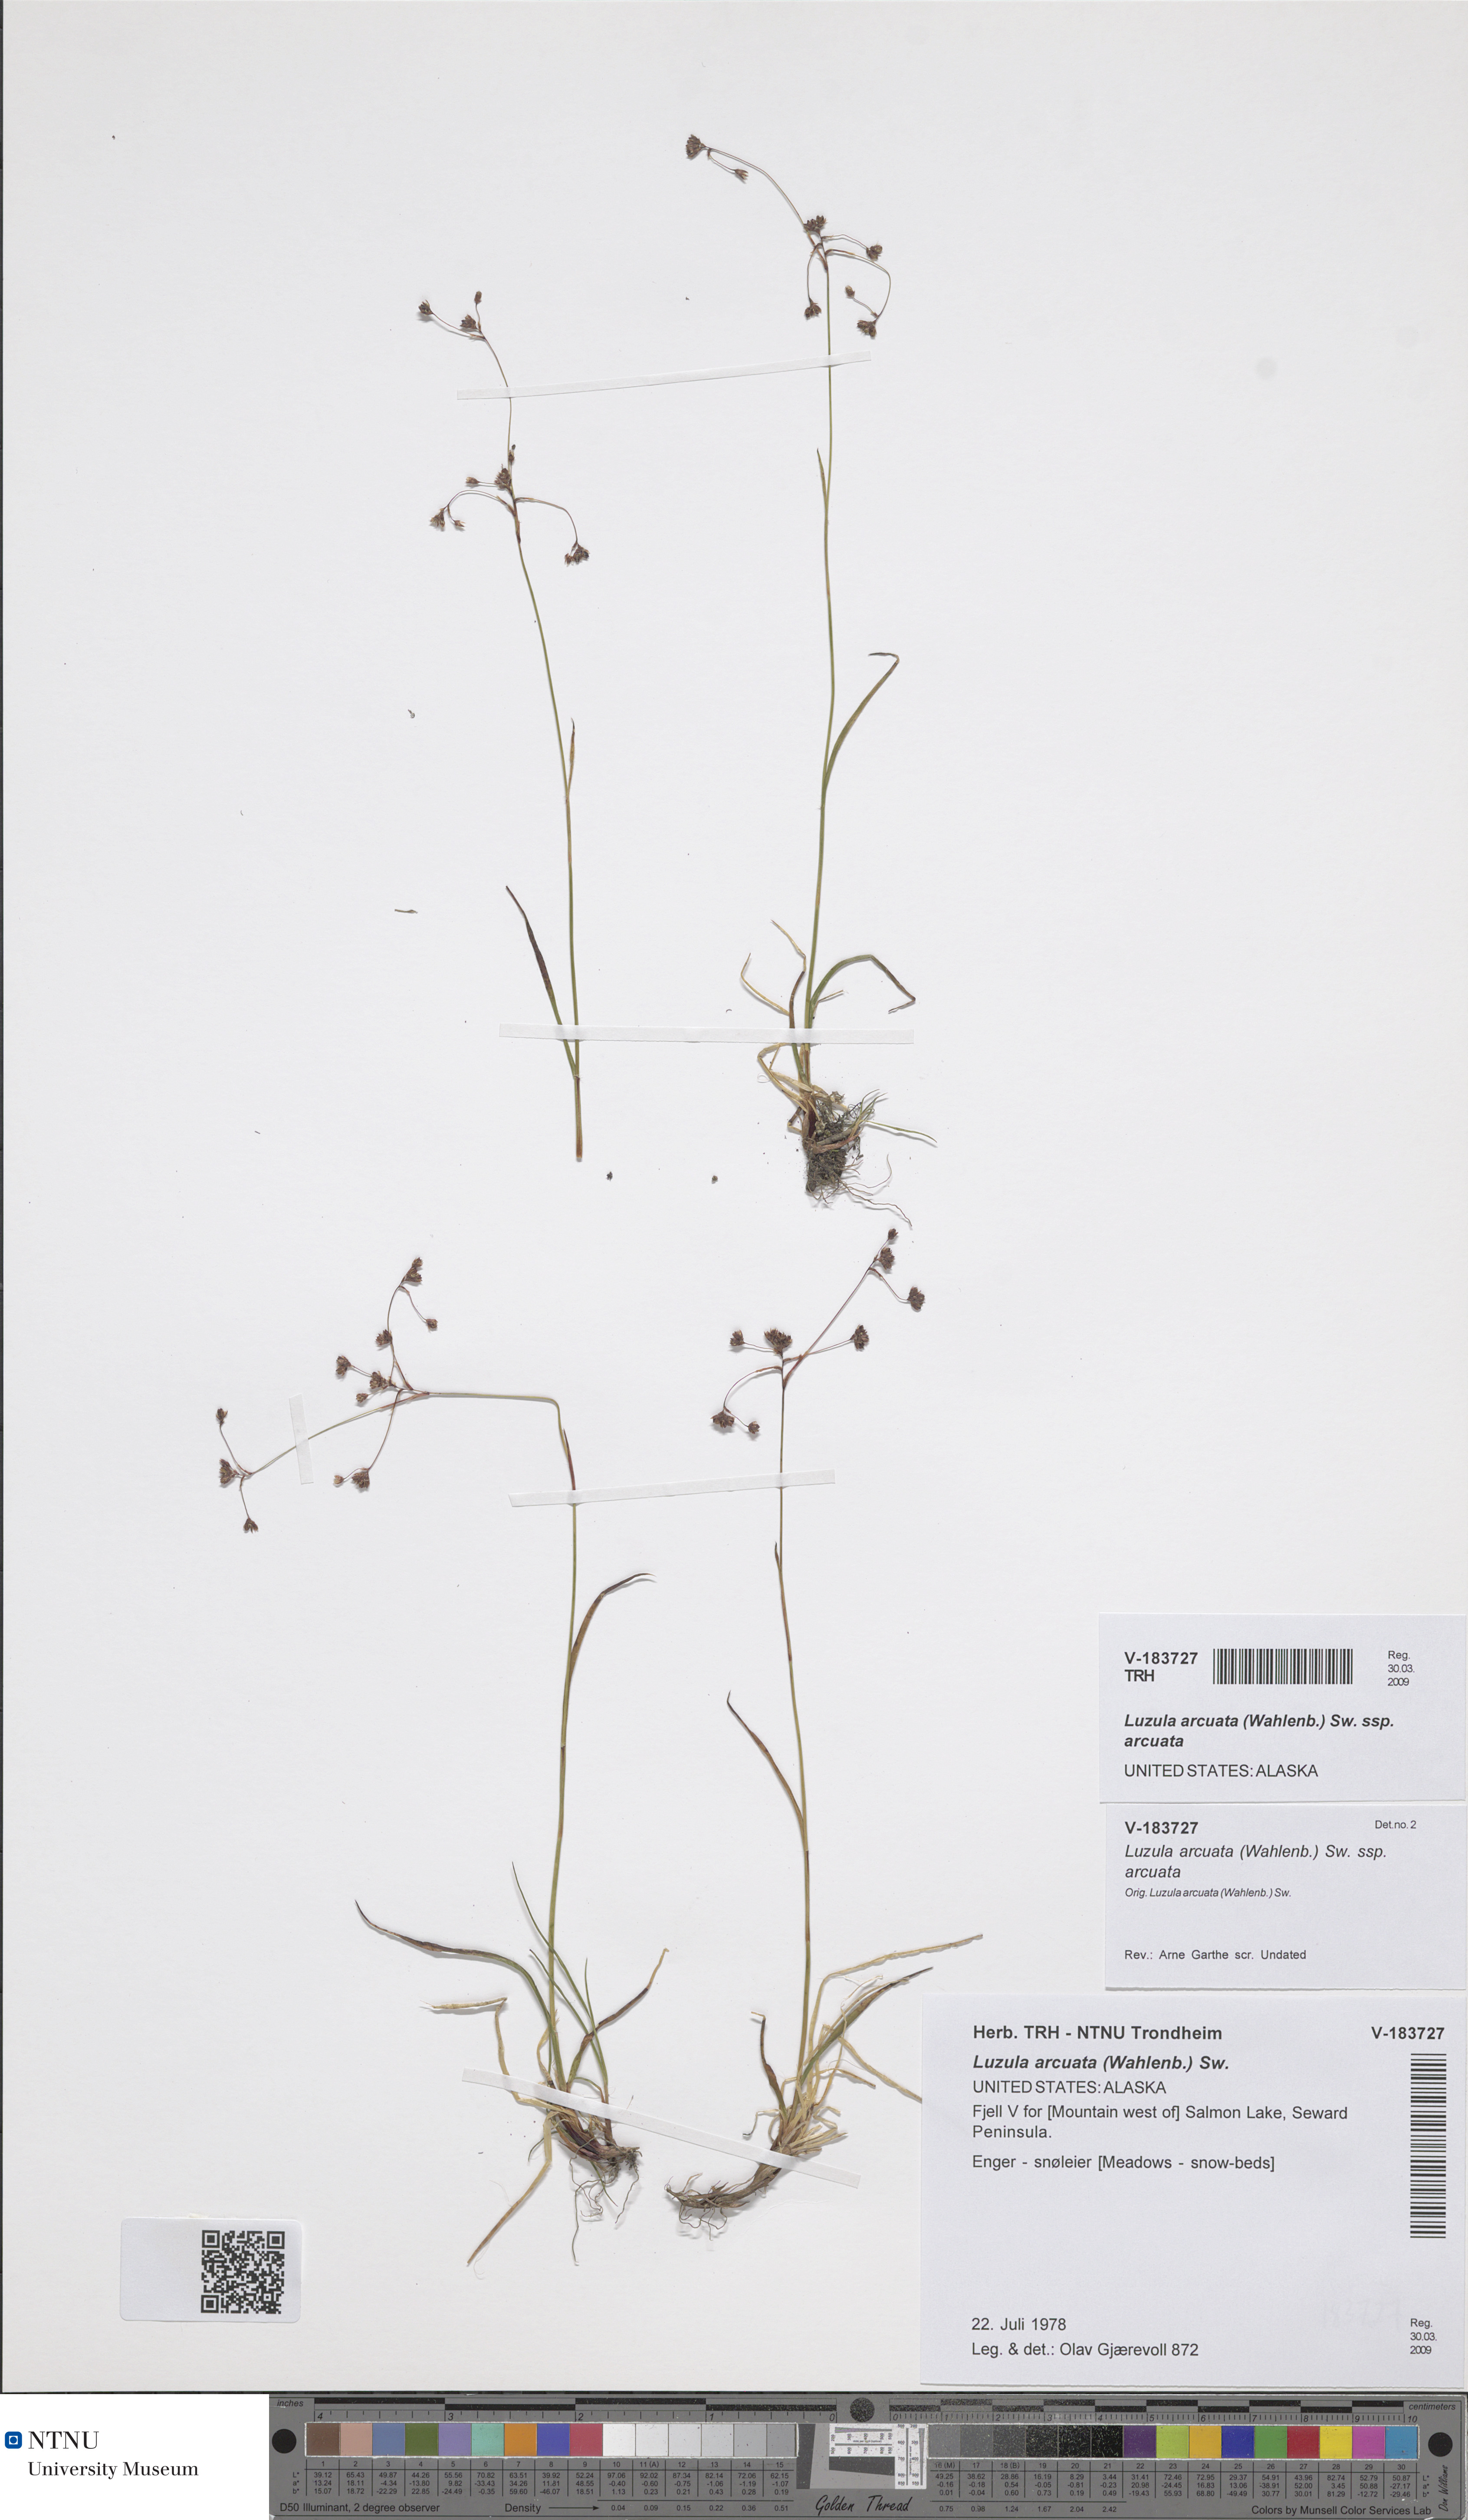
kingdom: Plantae
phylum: Tracheophyta
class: Liliopsida
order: Poales
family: Juncaceae
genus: Luzula
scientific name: Luzula arcuata
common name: Curved wood-rush
